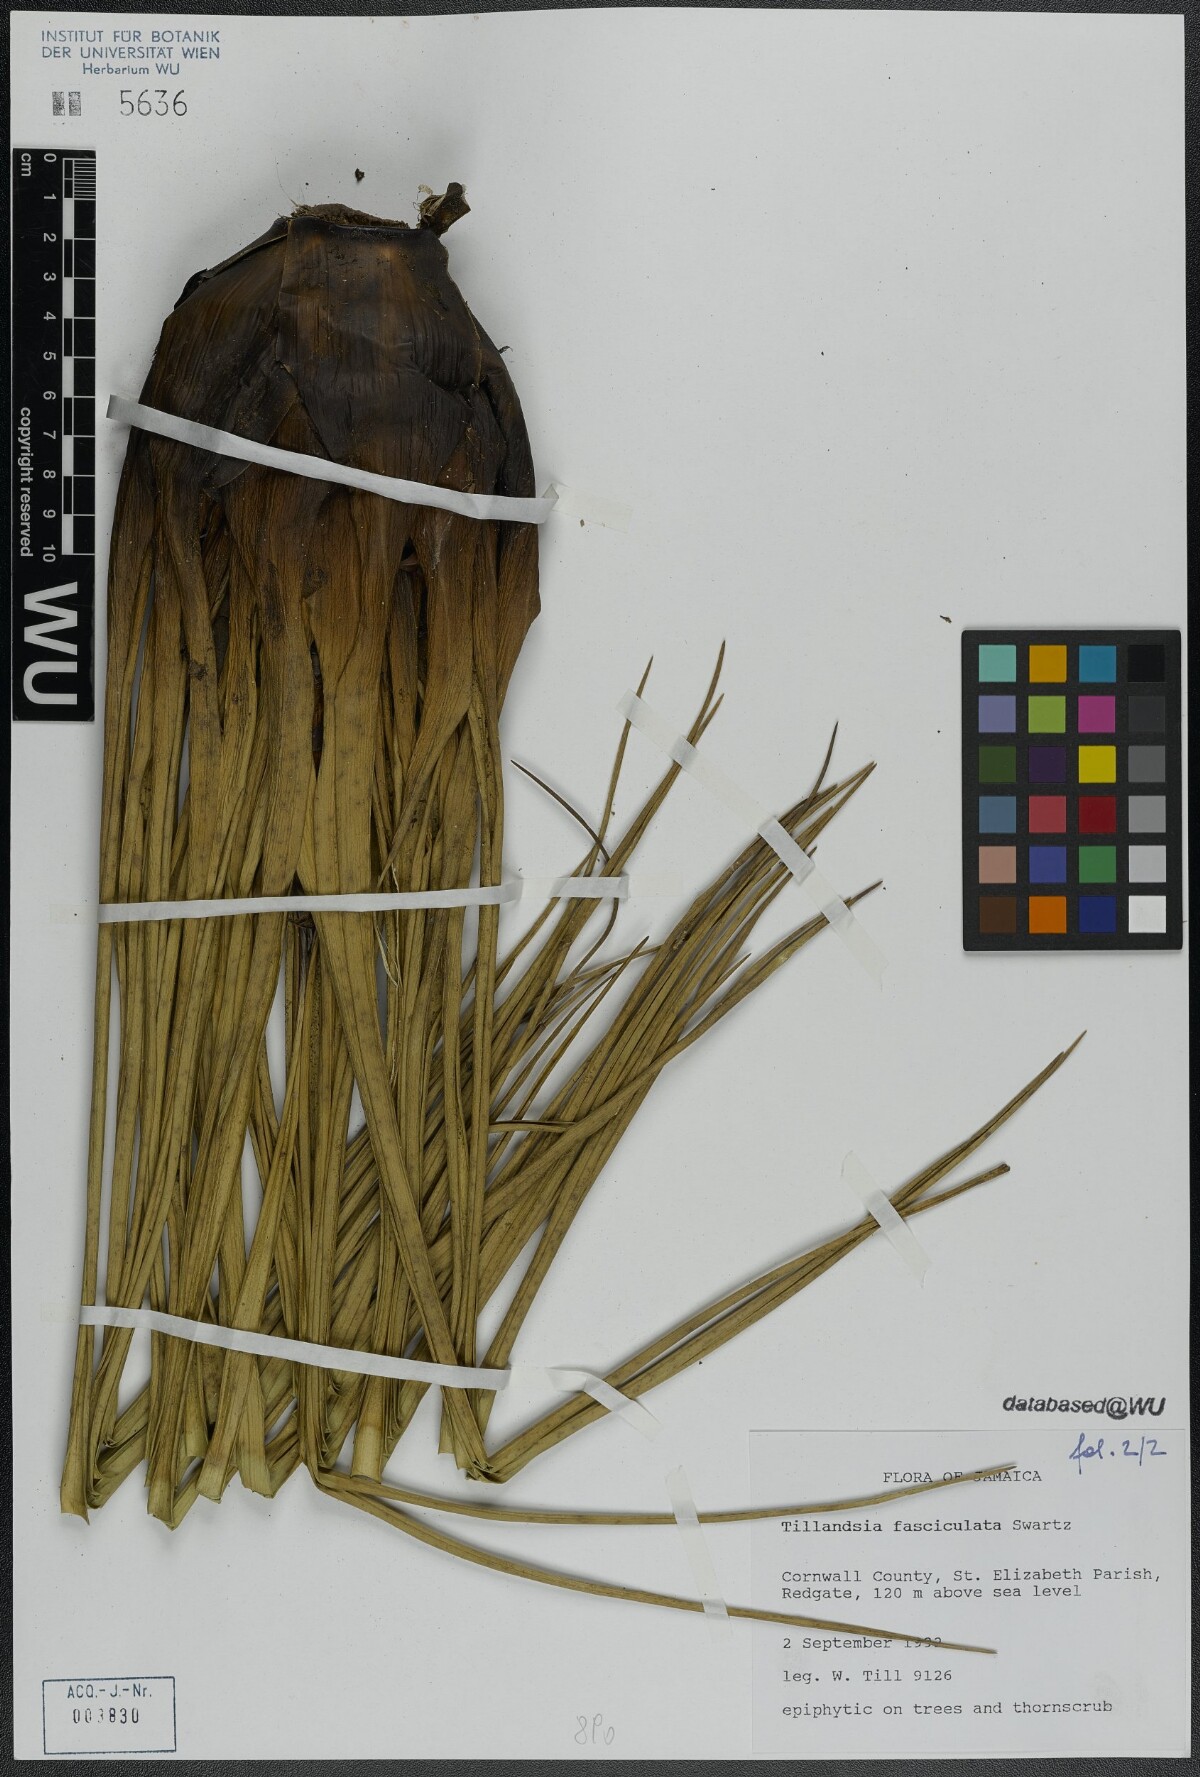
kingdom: Plantae
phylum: Tracheophyta
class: Liliopsida
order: Poales
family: Bromeliaceae
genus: Tillandsia
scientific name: Tillandsia fasciculata
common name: Giant airplant
